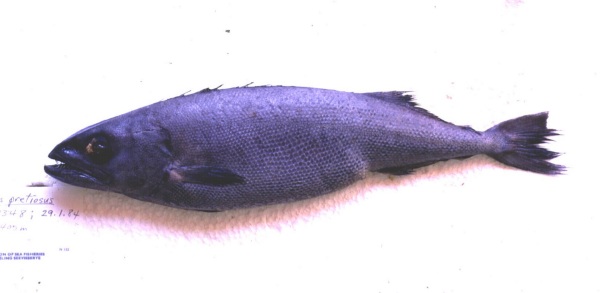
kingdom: Animalia
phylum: Chordata
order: Perciformes
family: Gempylidae
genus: Ruvettus
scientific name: Ruvettus pretiosus
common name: Oilfish
